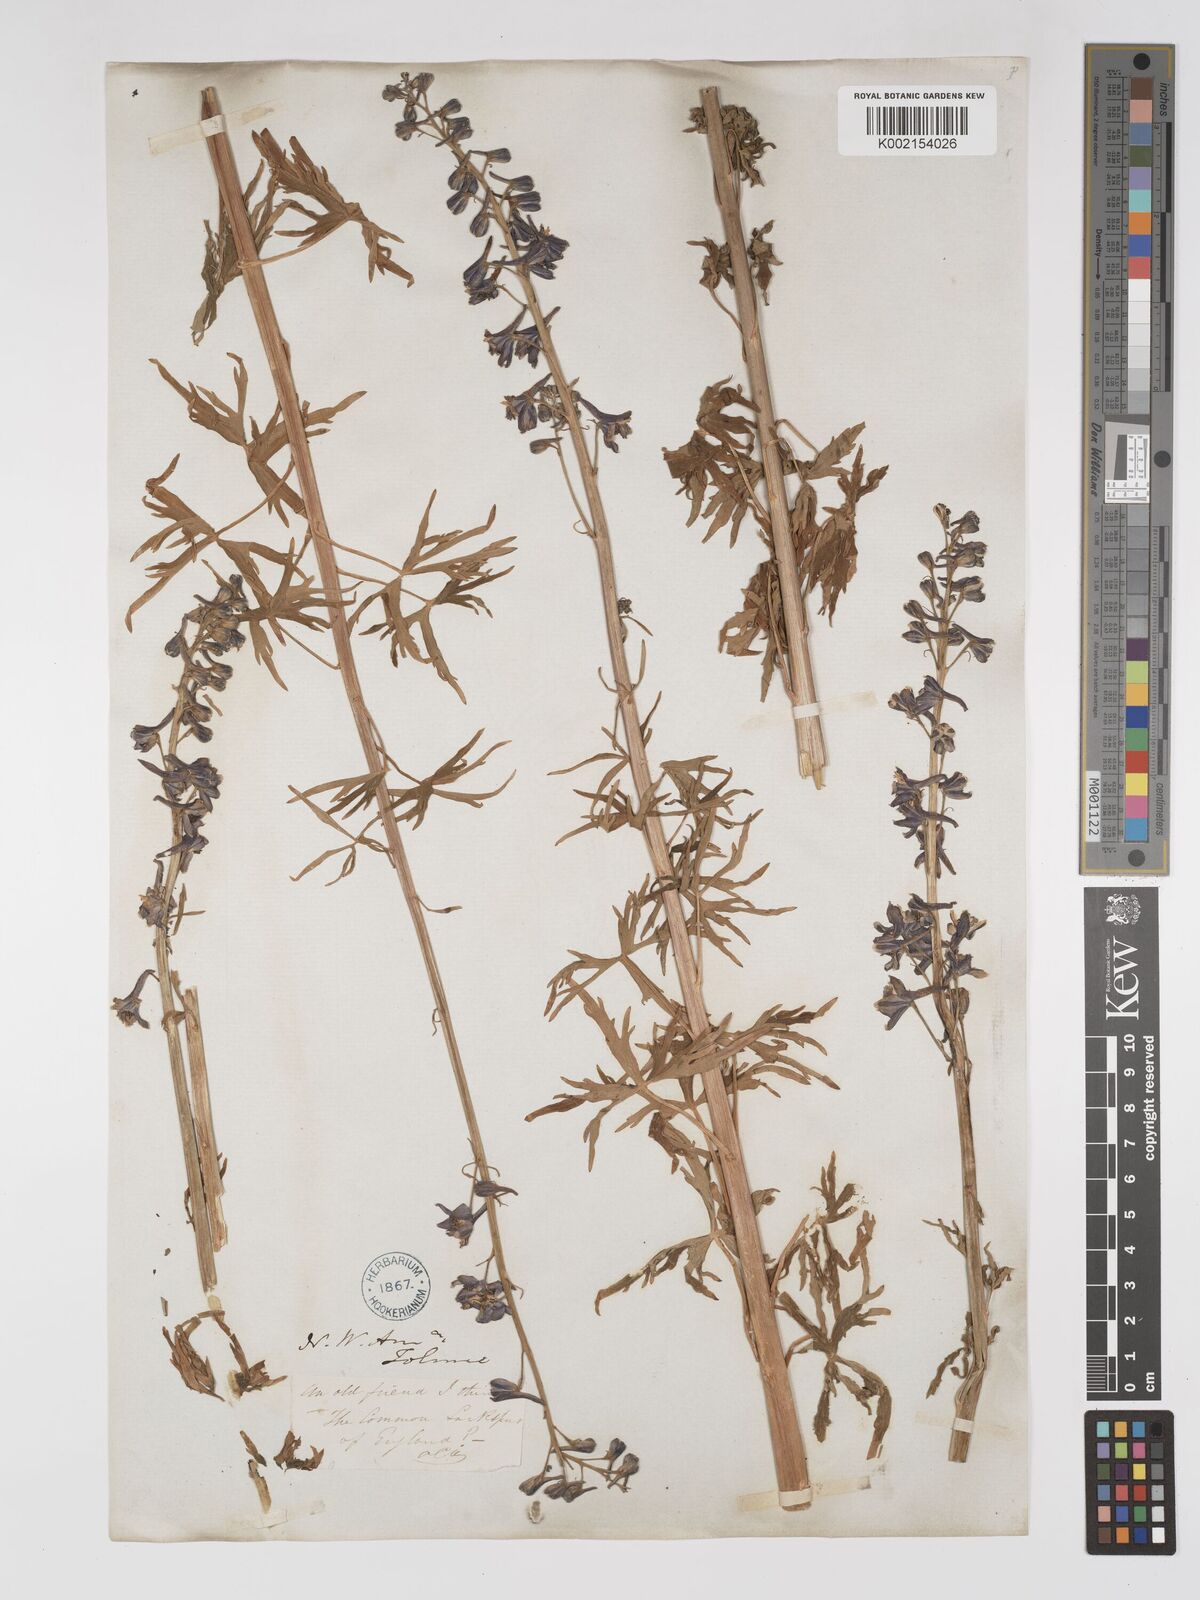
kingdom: Plantae
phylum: Tracheophyta
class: Magnoliopsida
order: Ranunculales
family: Ranunculaceae
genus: Delphinium
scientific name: Delphinium
